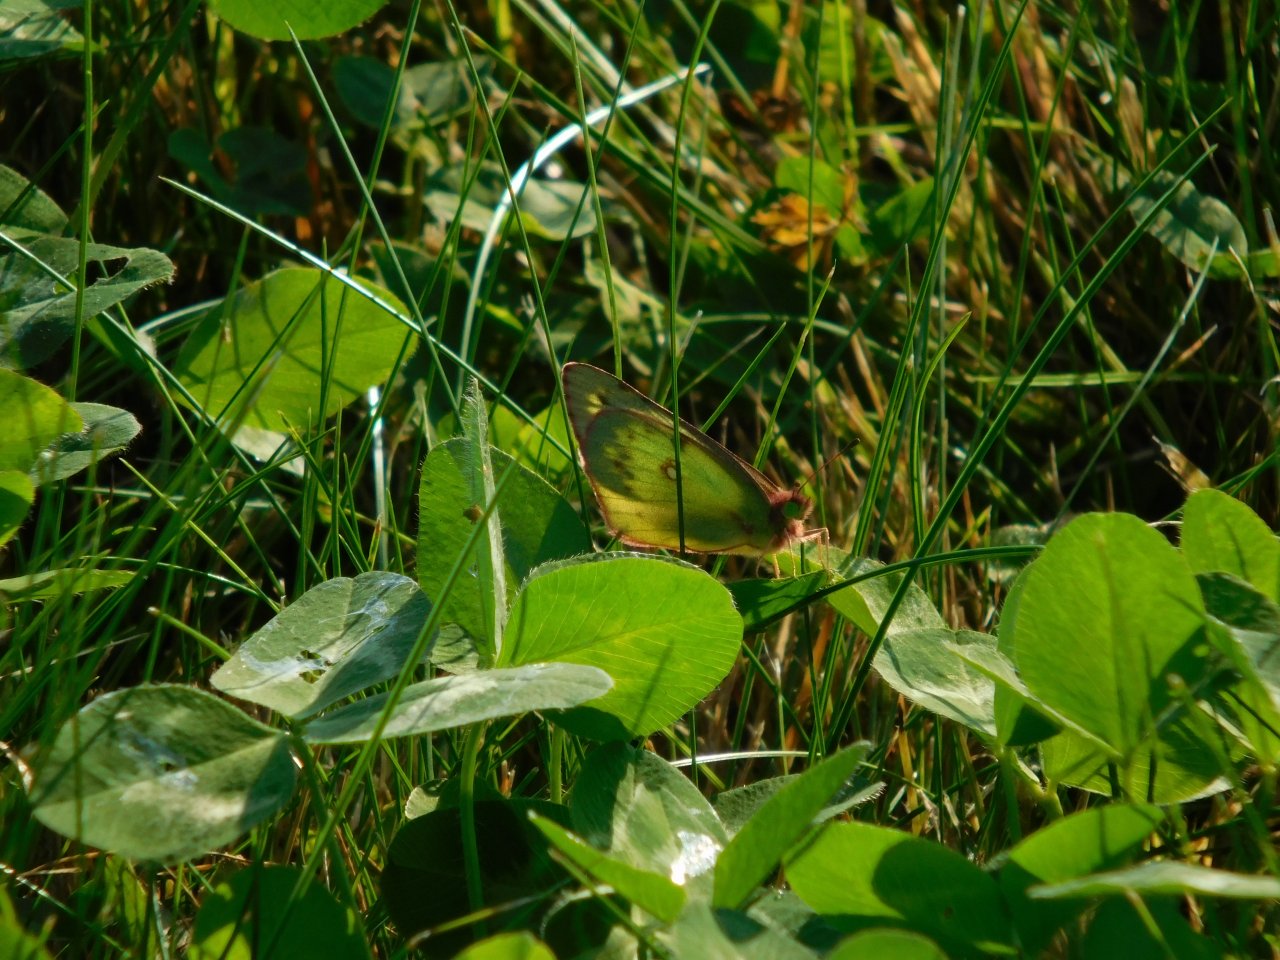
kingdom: Animalia
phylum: Arthropoda
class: Insecta
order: Lepidoptera
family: Pieridae
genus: Colias
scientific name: Colias philodice
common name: Clouded Sulphur
